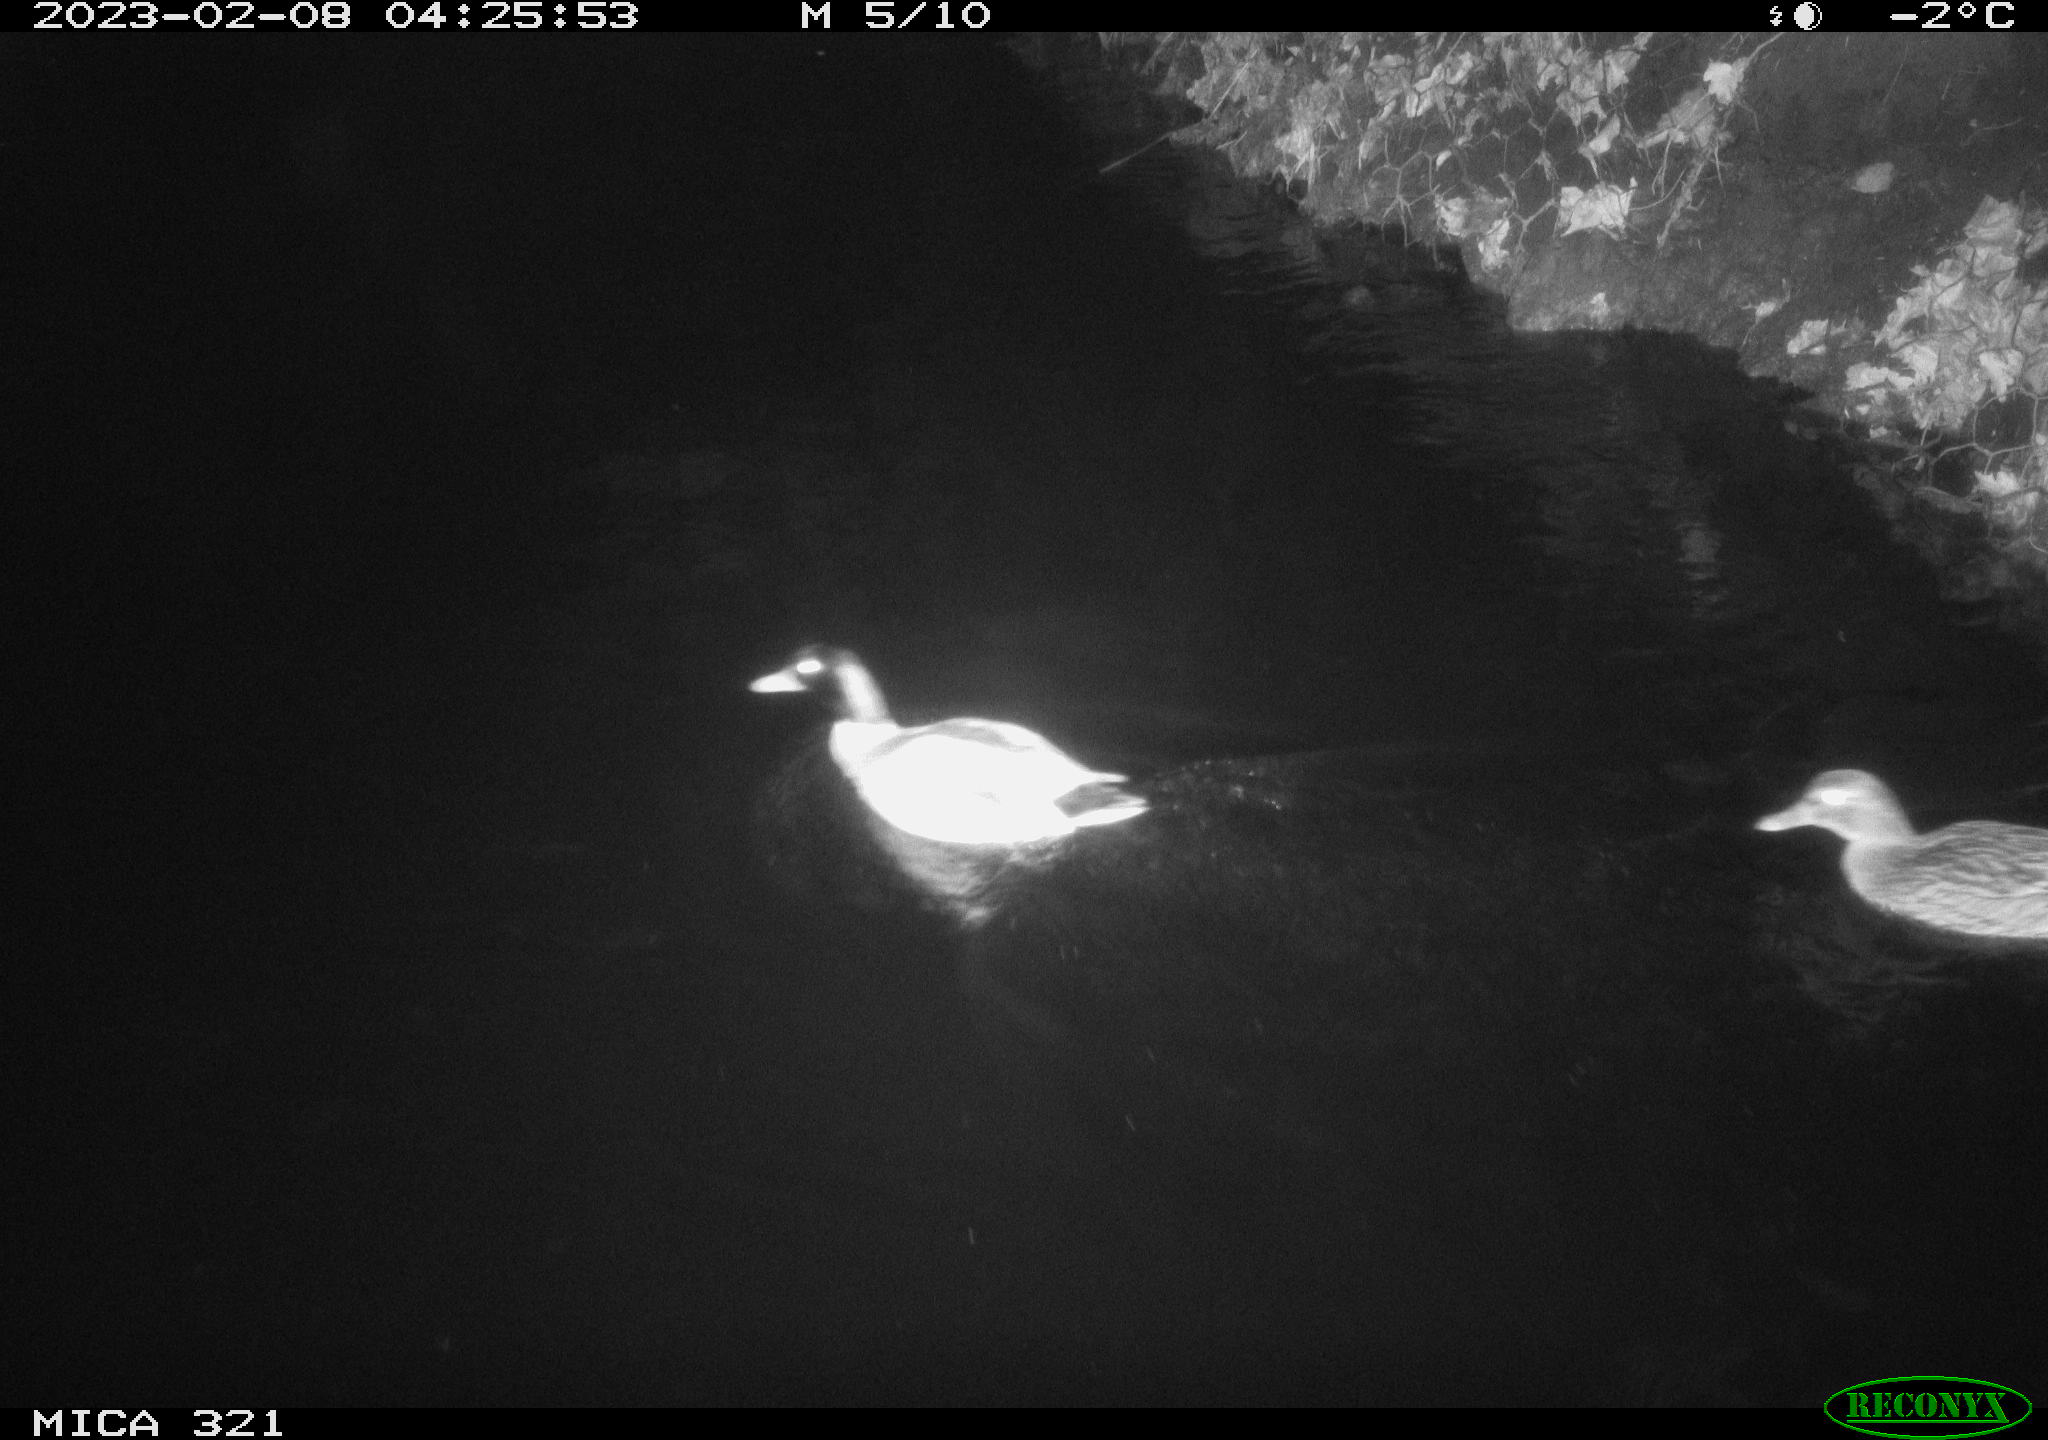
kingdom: Animalia
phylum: Chordata
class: Aves
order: Anseriformes
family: Anatidae
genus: Anas
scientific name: Anas
